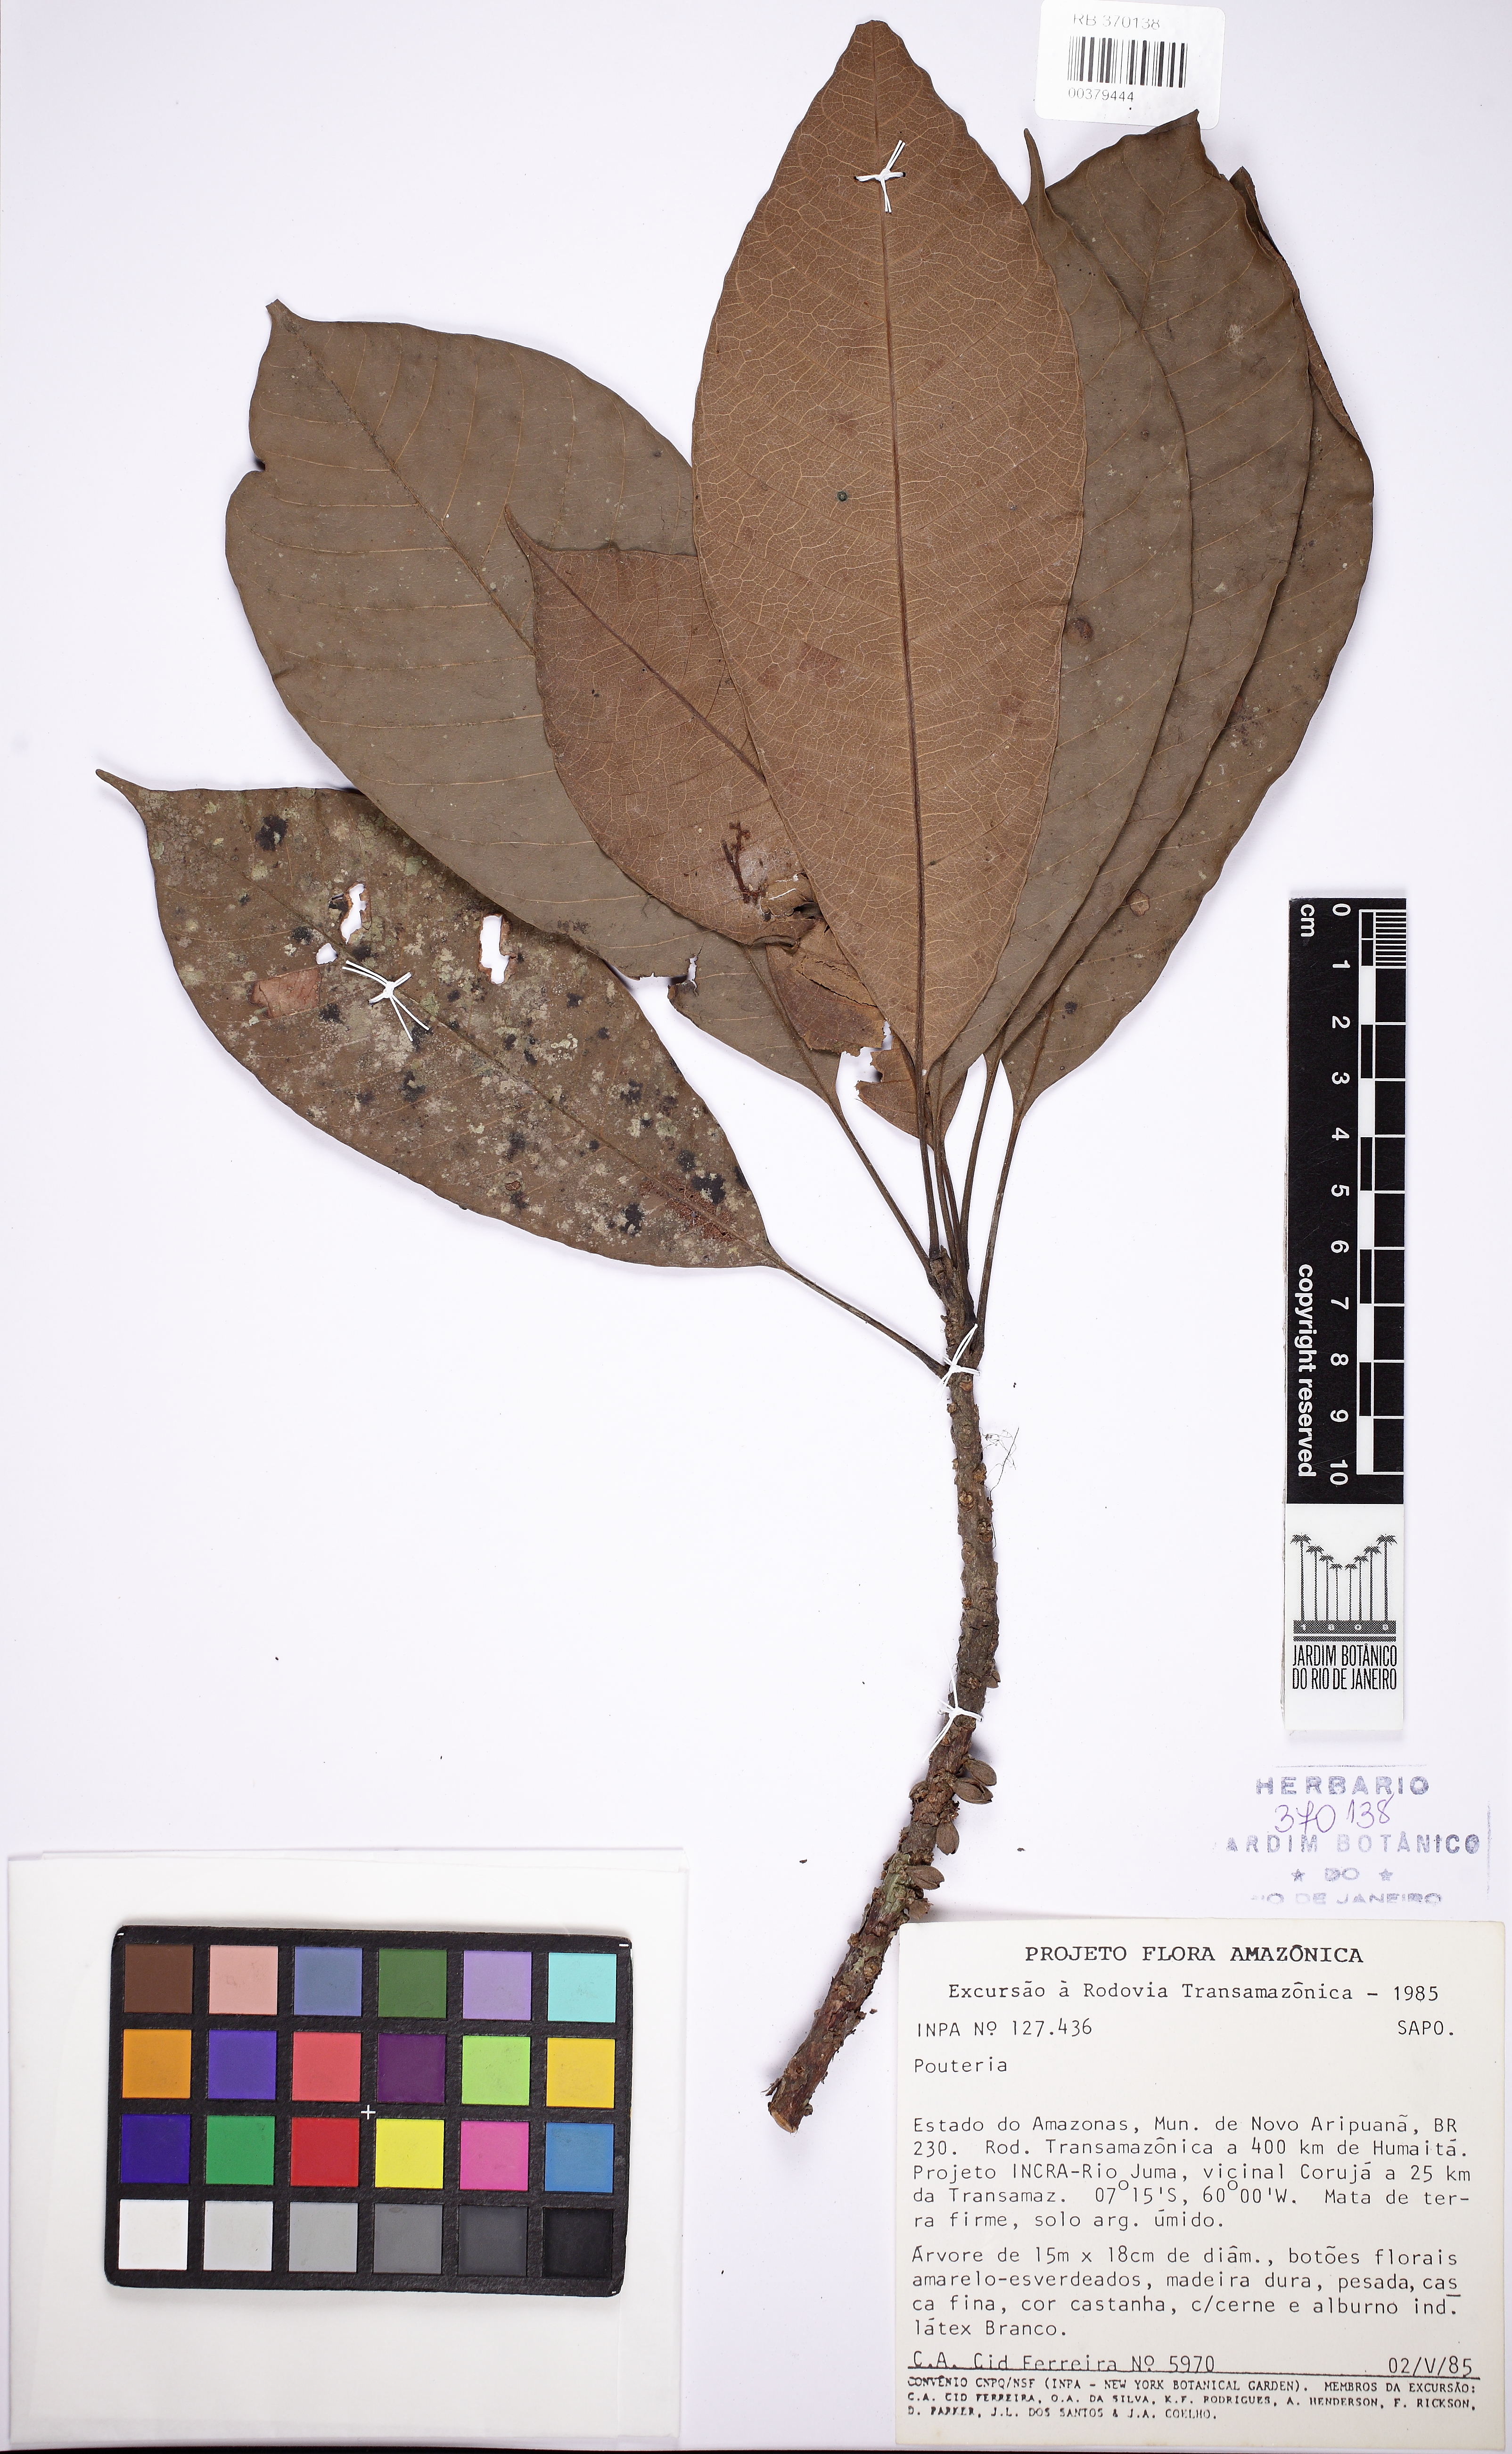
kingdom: Plantae
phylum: Tracheophyta
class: Magnoliopsida
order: Ericales
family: Sapotaceae
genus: Pouteria
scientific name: Pouteria guianensis
